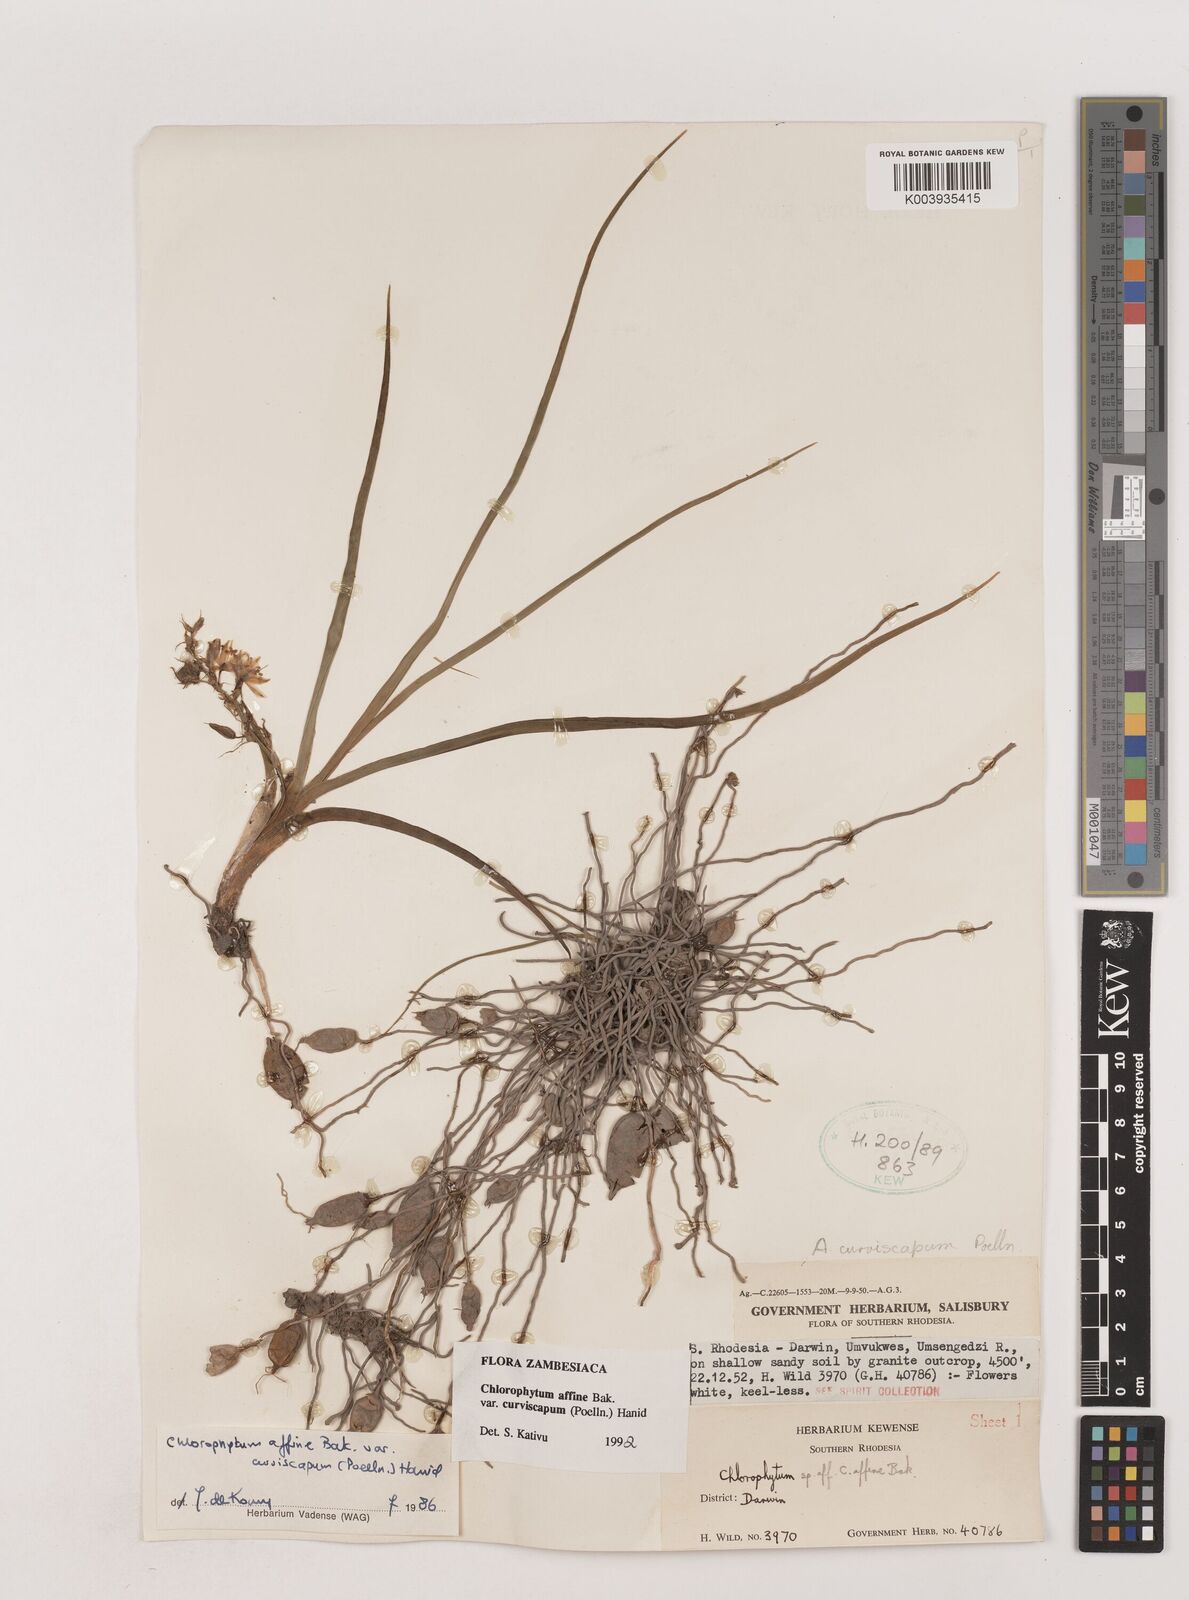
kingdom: Plantae
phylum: Tracheophyta
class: Liliopsida
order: Asparagales
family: Asparagaceae
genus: Chlorophytum
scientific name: Chlorophytum tordense
